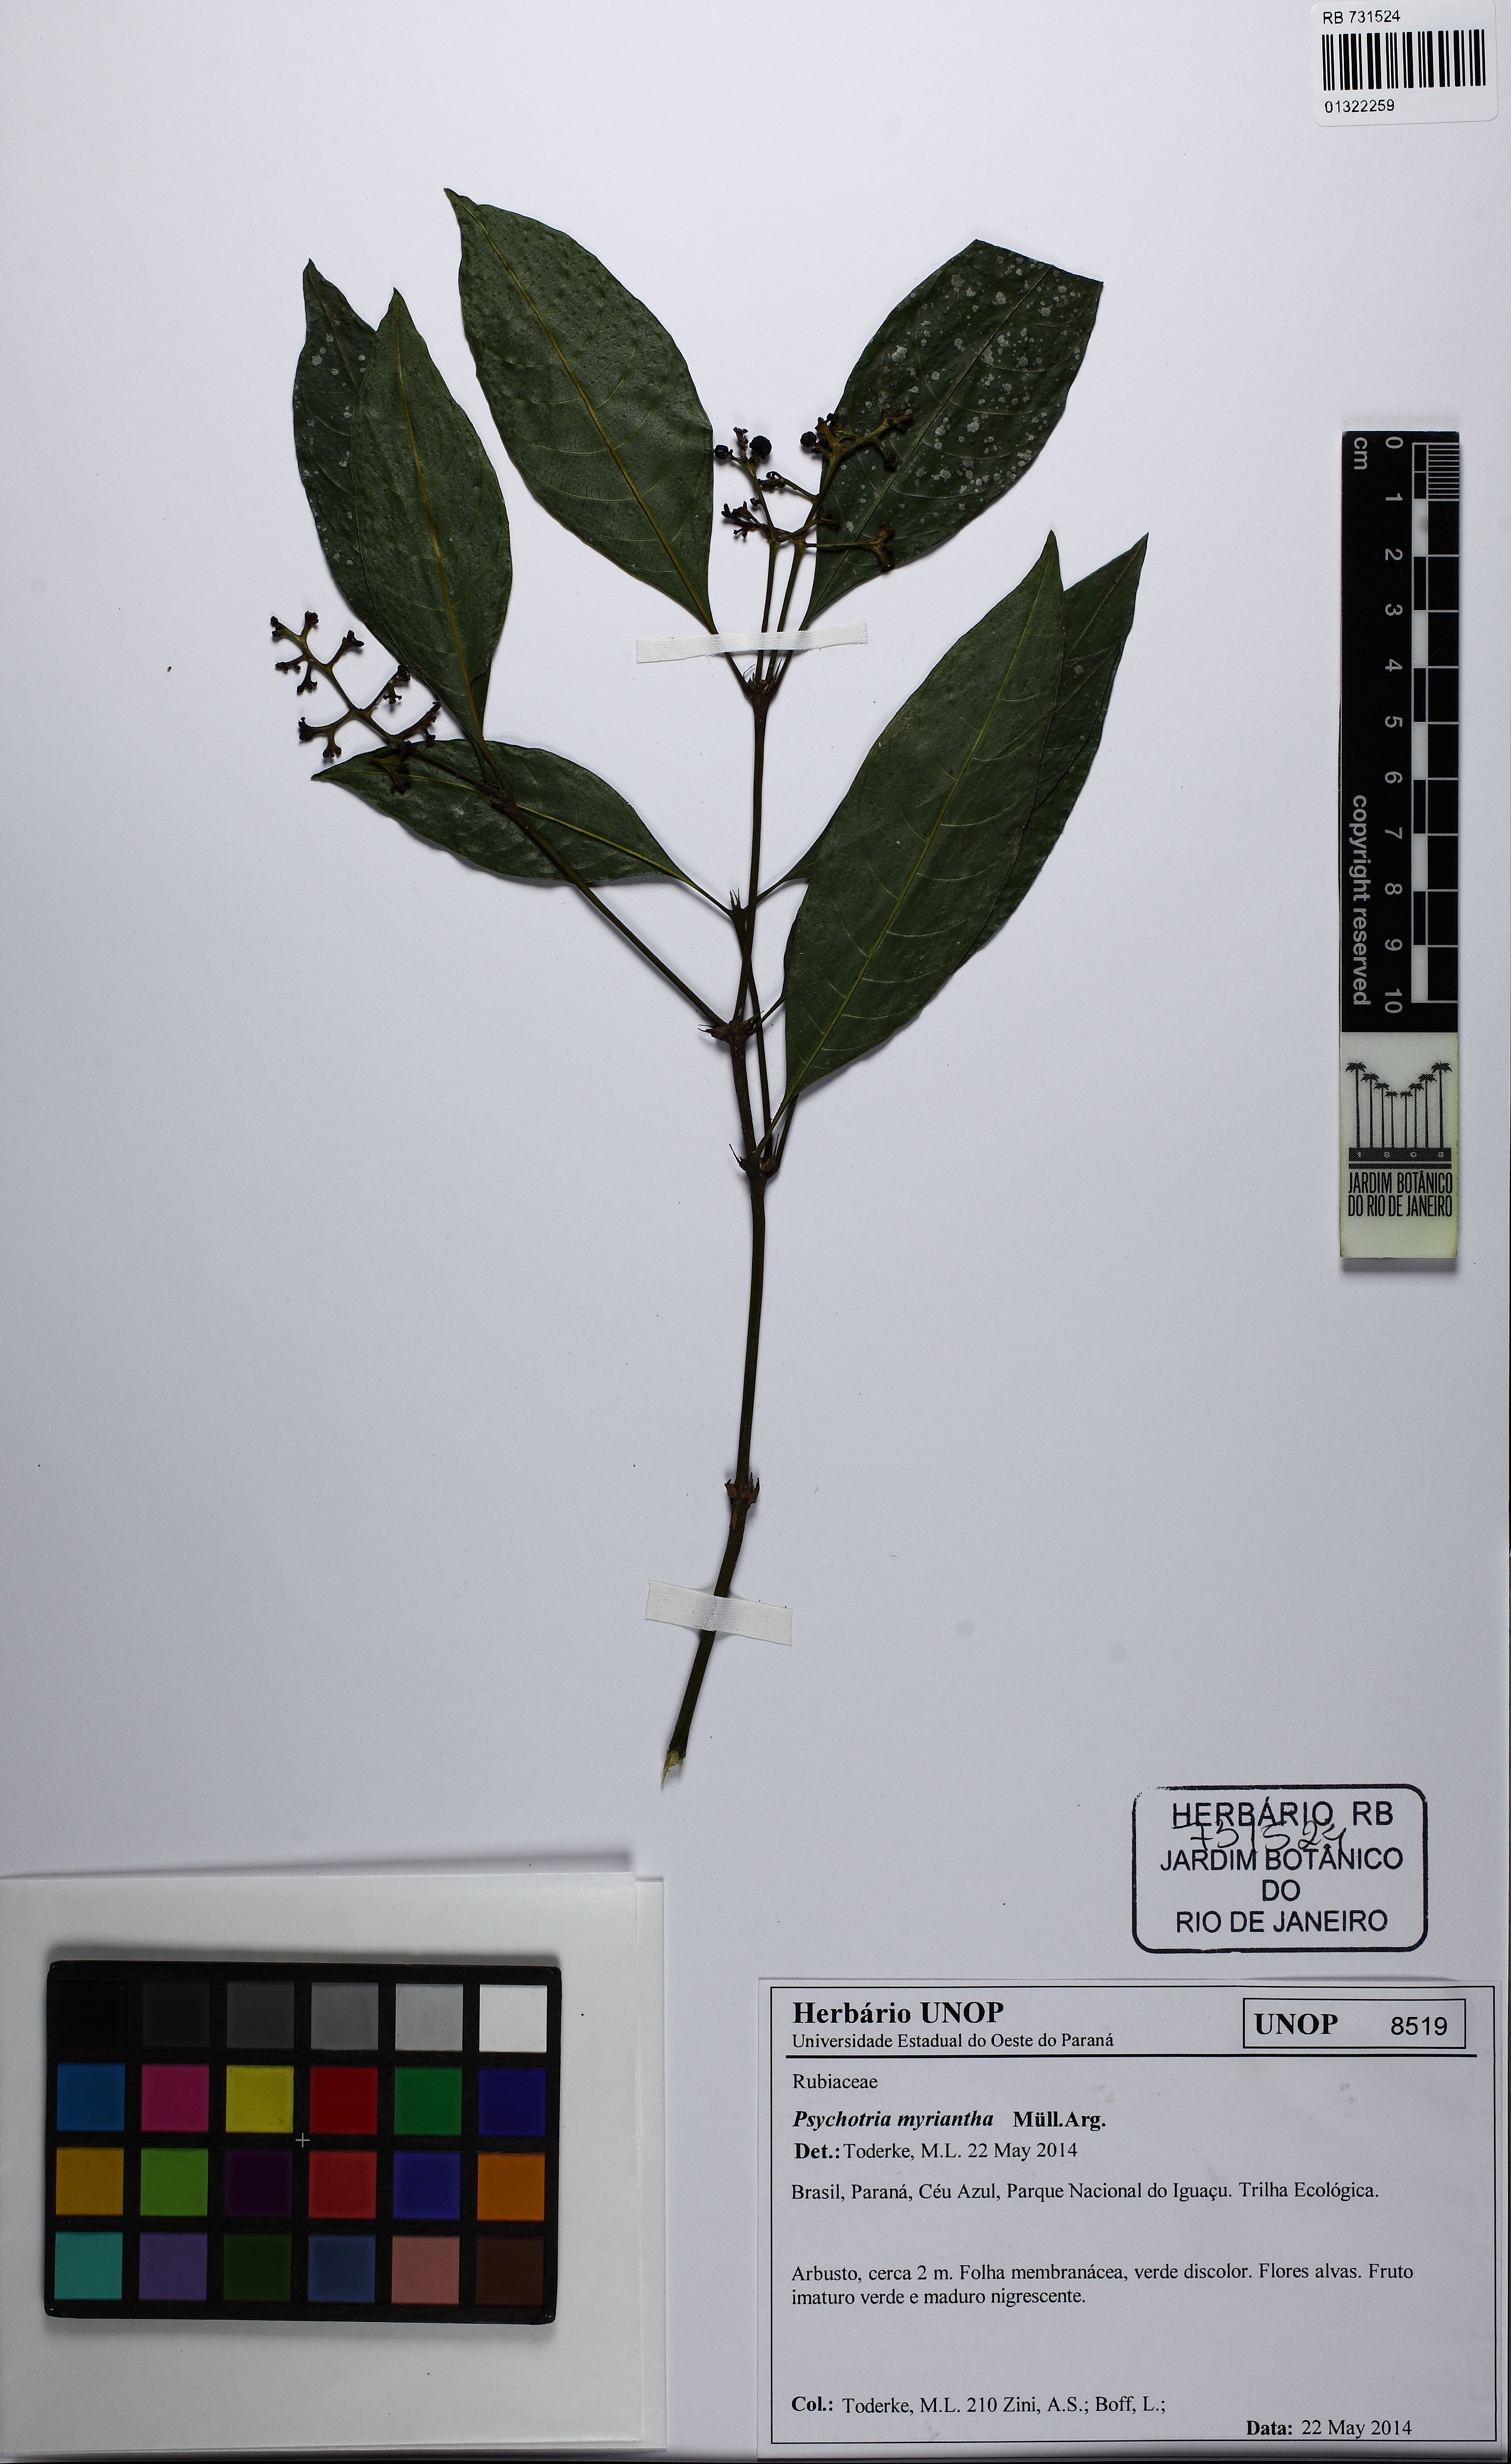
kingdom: Plantae
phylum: Tracheophyta
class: Magnoliopsida
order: Gentianales
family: Rubiaceae
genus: Palicourea
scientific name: Palicourea mamillaris
